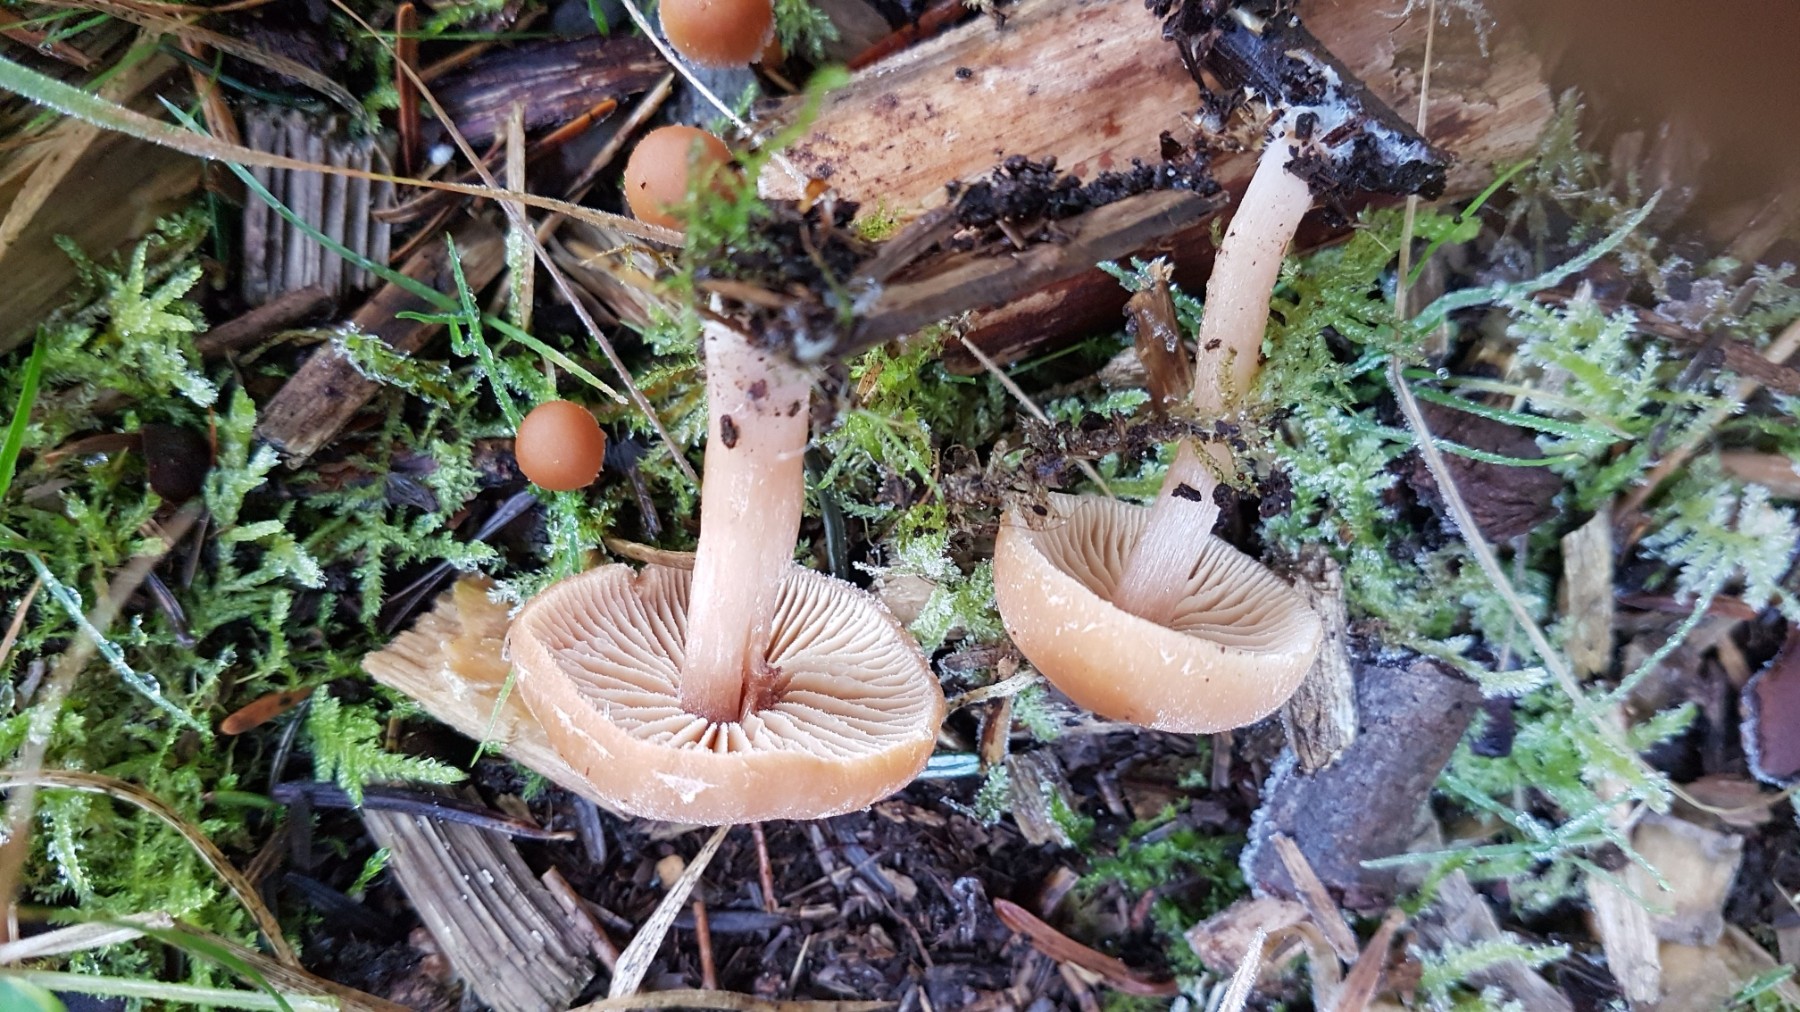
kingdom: Fungi
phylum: Basidiomycota
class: Agaricomycetes
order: Agaricales
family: Tubariaceae
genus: Tubaria
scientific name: Tubaria furfuracea
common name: kliddet fnughat
